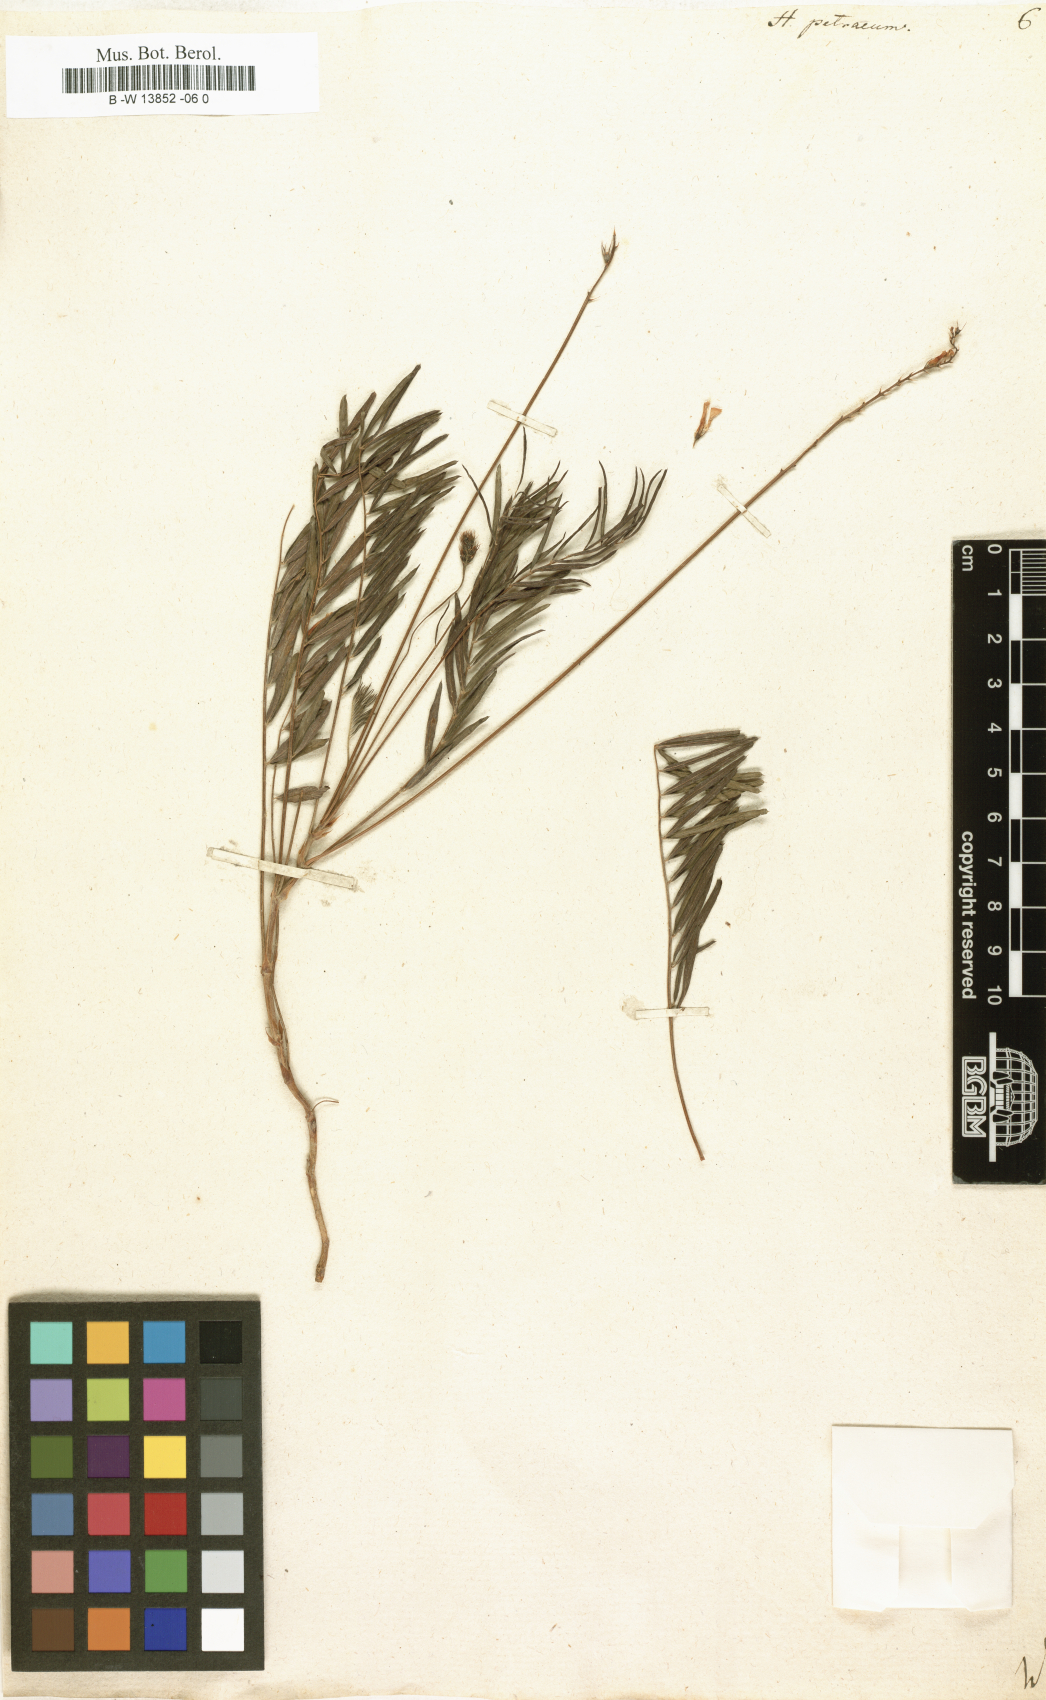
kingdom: Plantae
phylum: Tracheophyta
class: Magnoliopsida
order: Fabales
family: Fabaceae
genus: Onobrychis
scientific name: Onobrychis petraea
